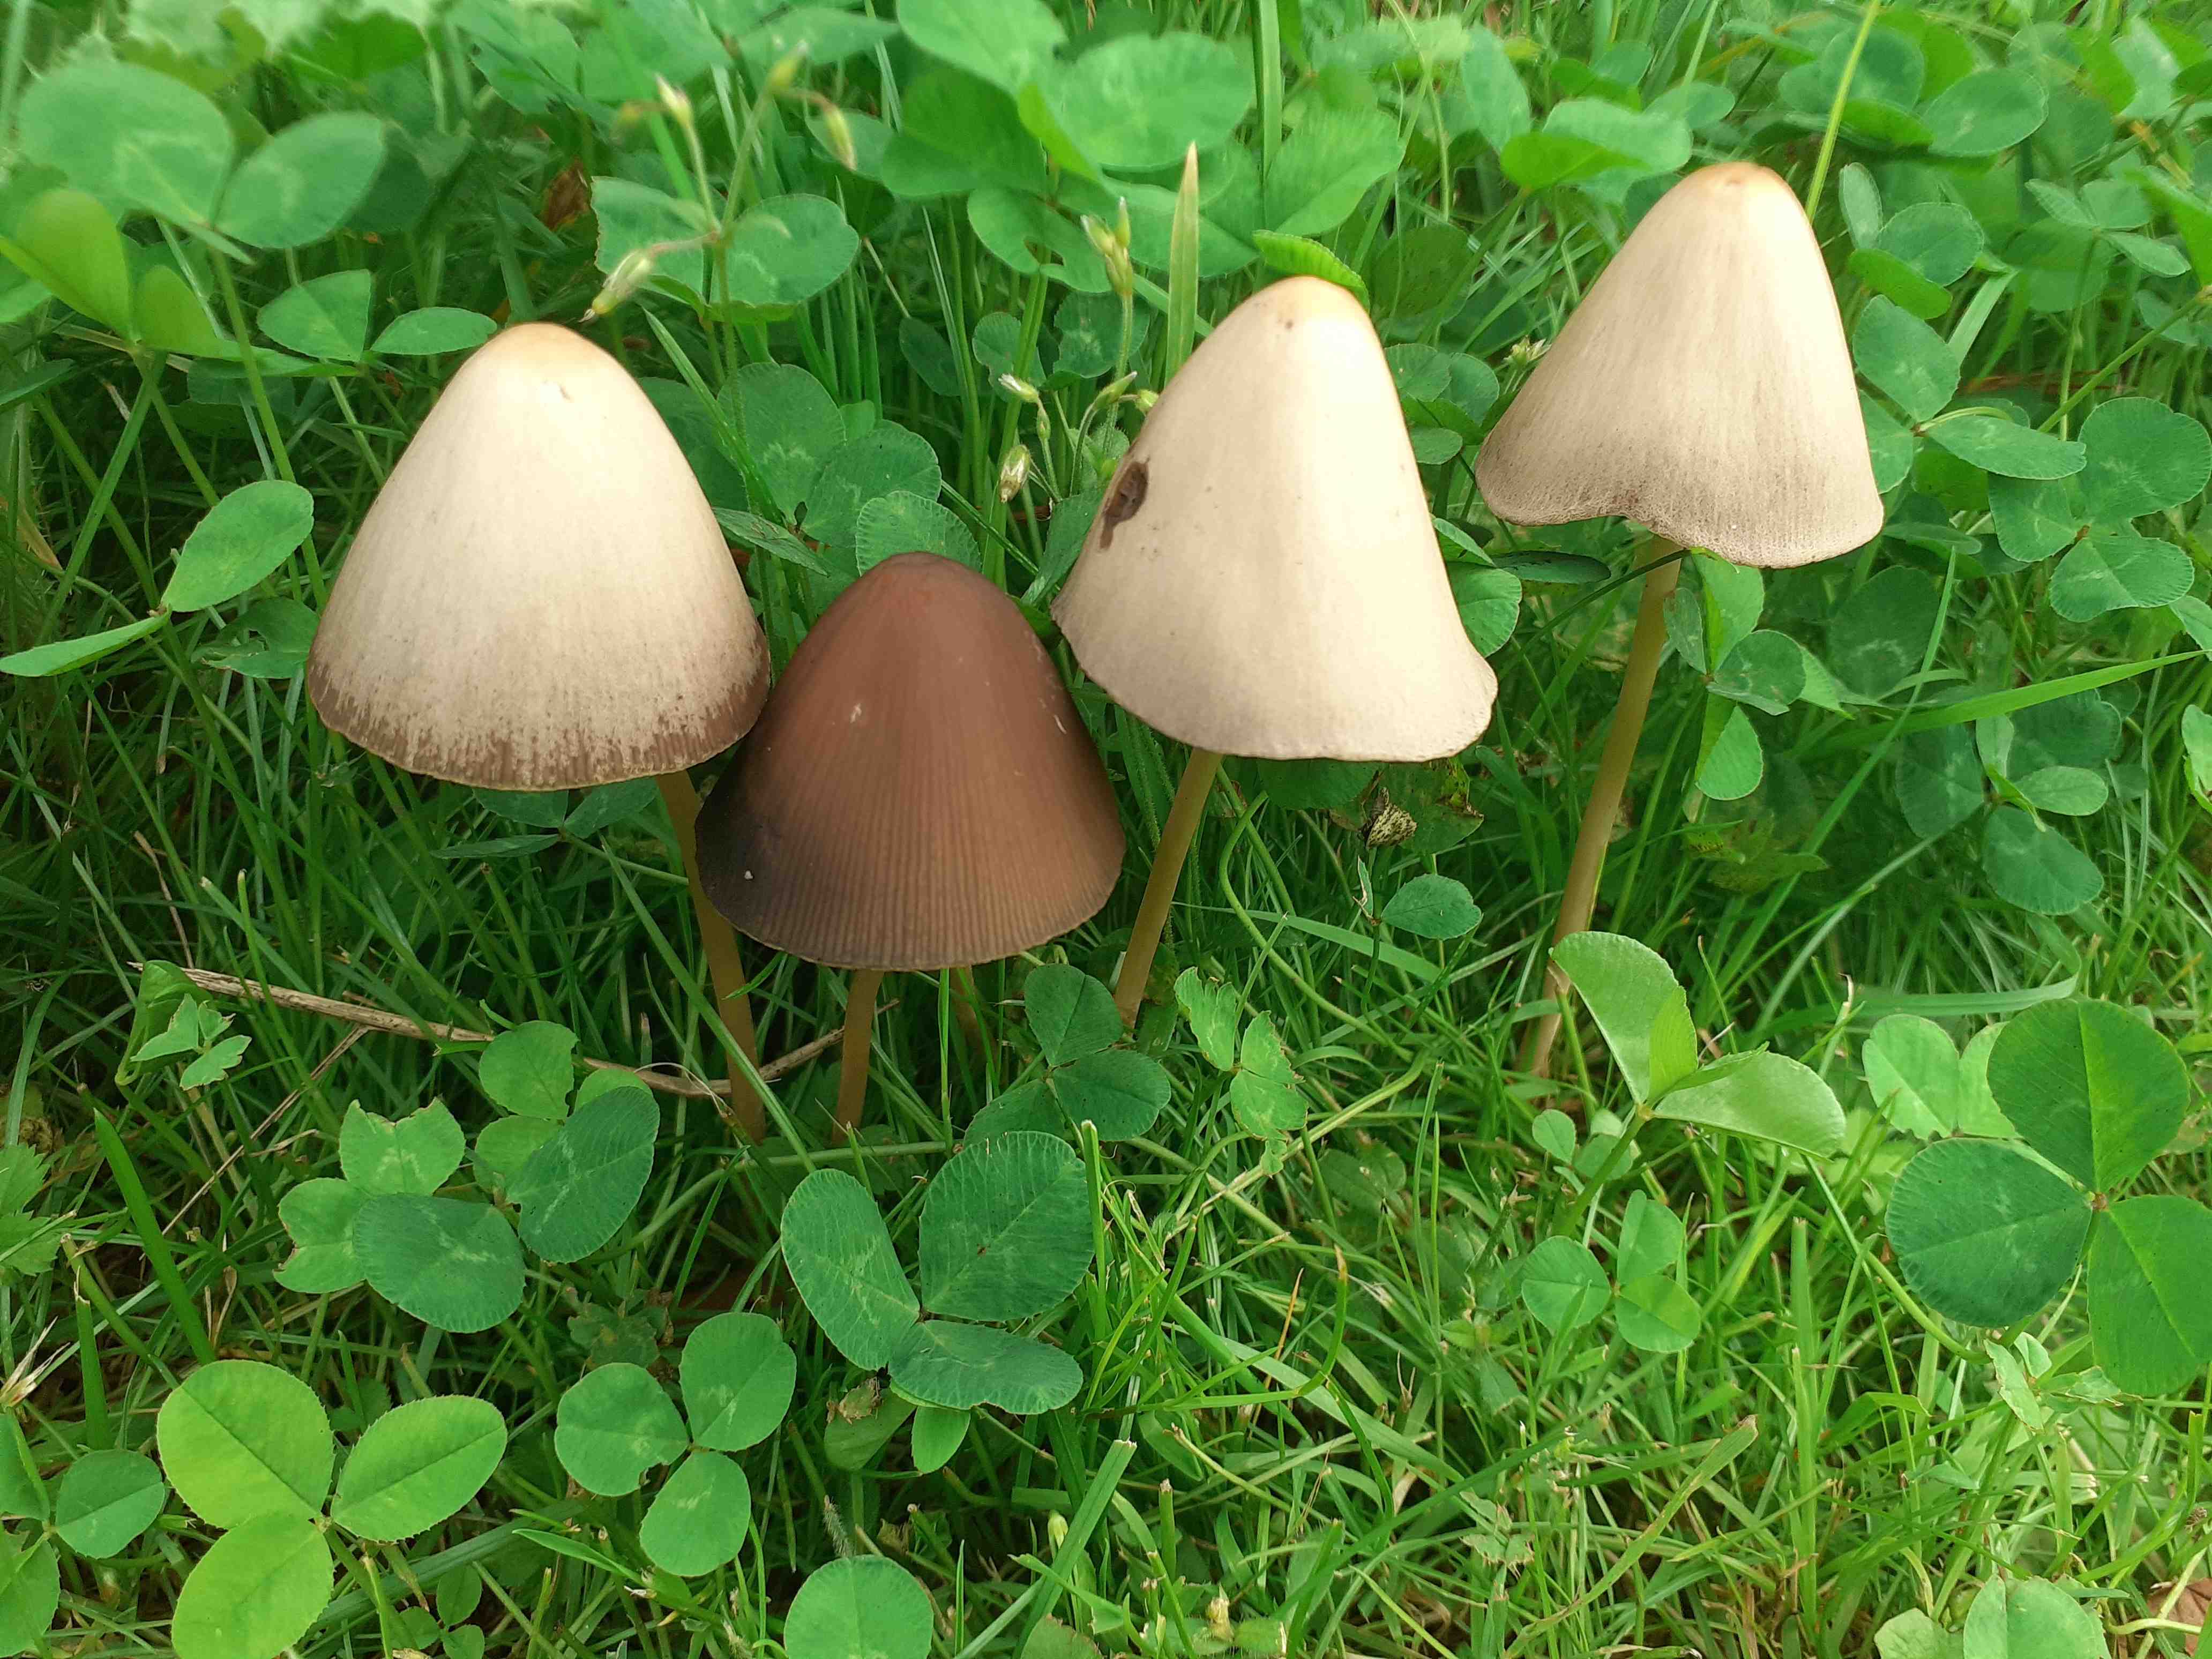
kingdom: Fungi
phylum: Basidiomycota
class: Agaricomycetes
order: Agaricales
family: Psathyrellaceae
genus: Parasola
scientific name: Parasola conopilea
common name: kegle-hjulhat
